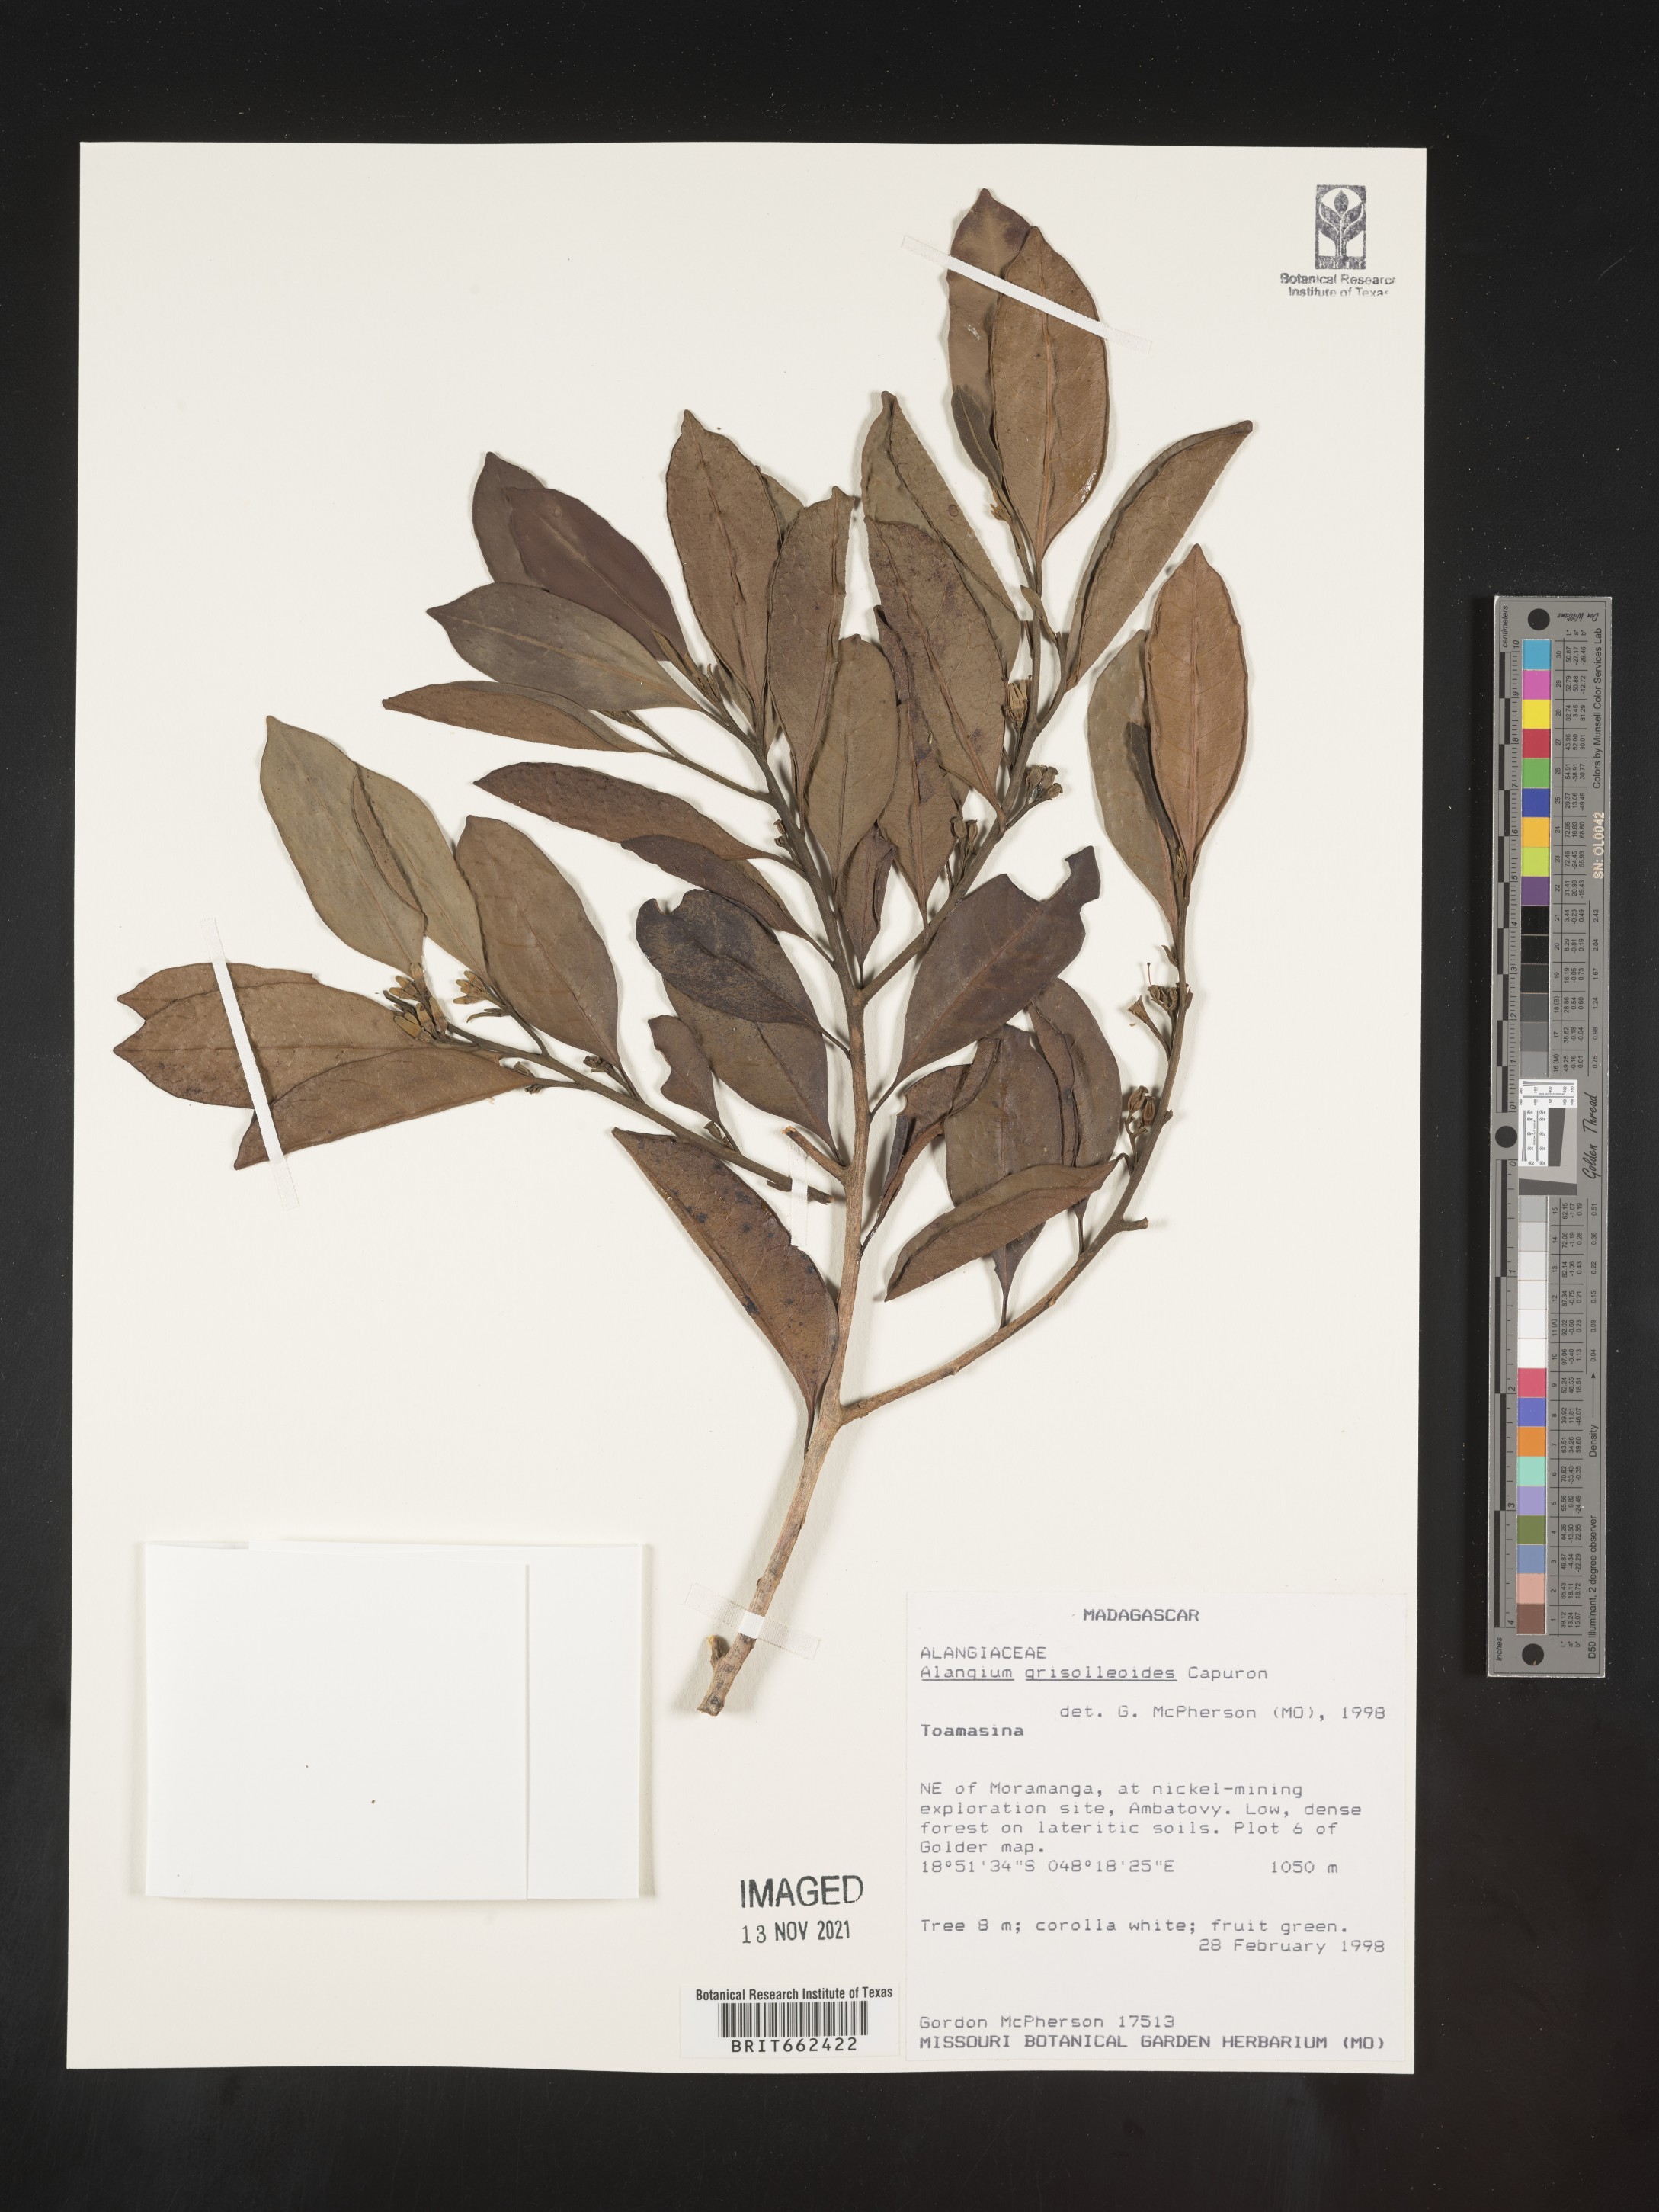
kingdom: Plantae
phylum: Tracheophyta
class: Magnoliopsida
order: Cornales
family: Cornaceae
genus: Alangium
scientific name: Alangium
